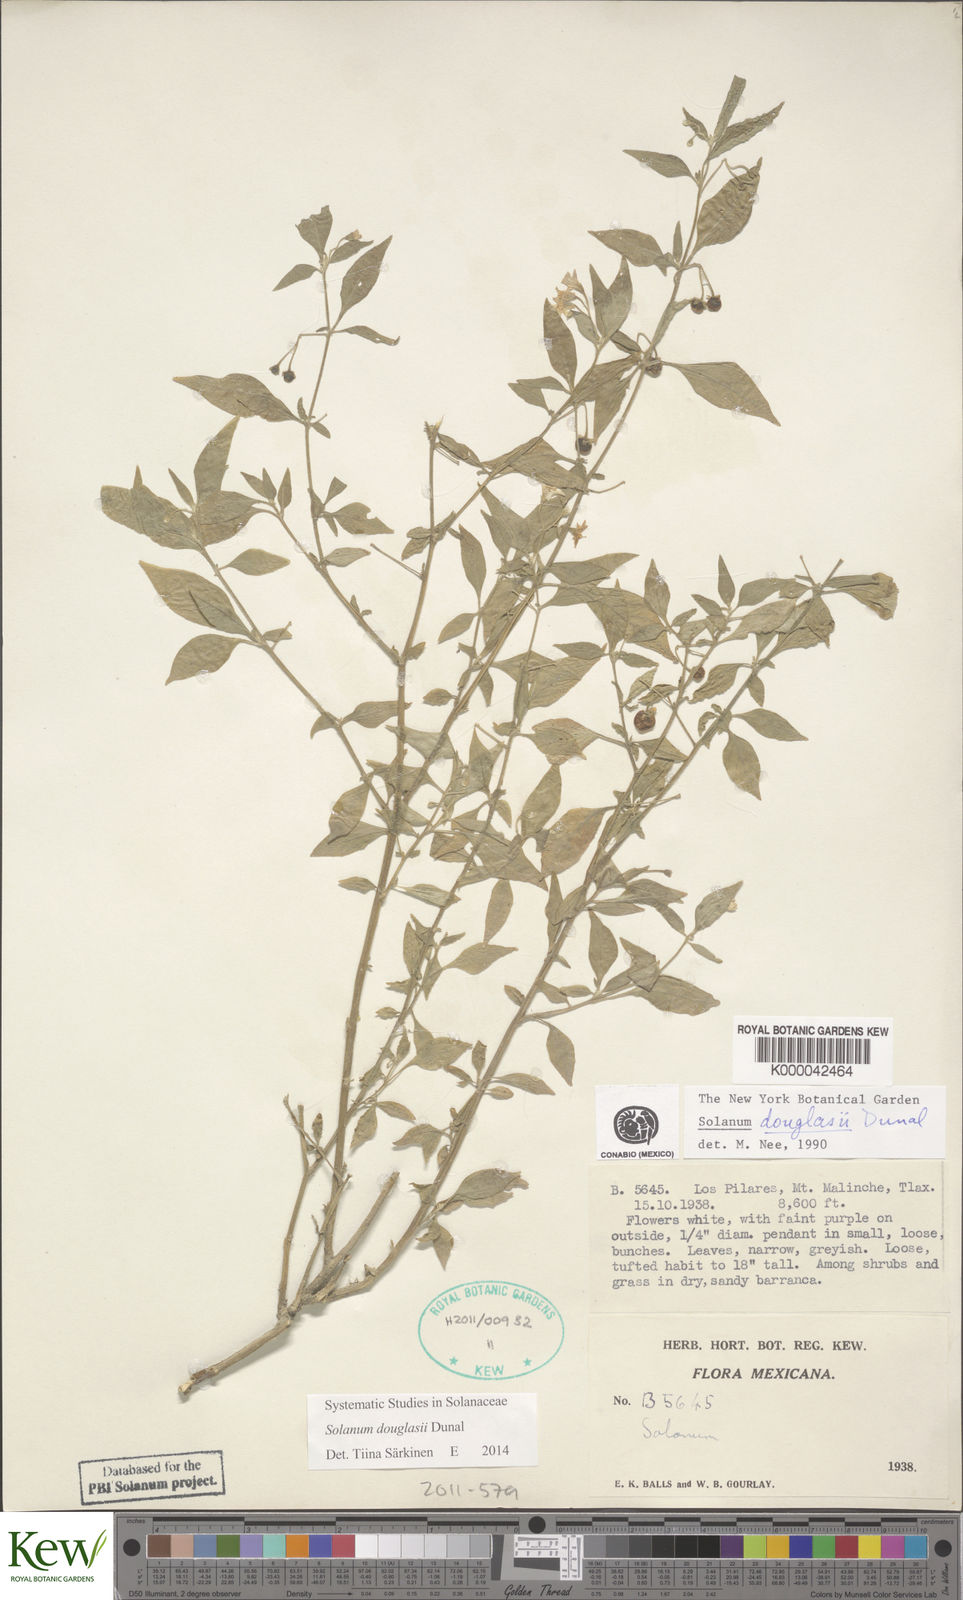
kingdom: Plantae
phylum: Tracheophyta
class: Magnoliopsida
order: Solanales
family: Solanaceae
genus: Solanum
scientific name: Solanum douglasii
